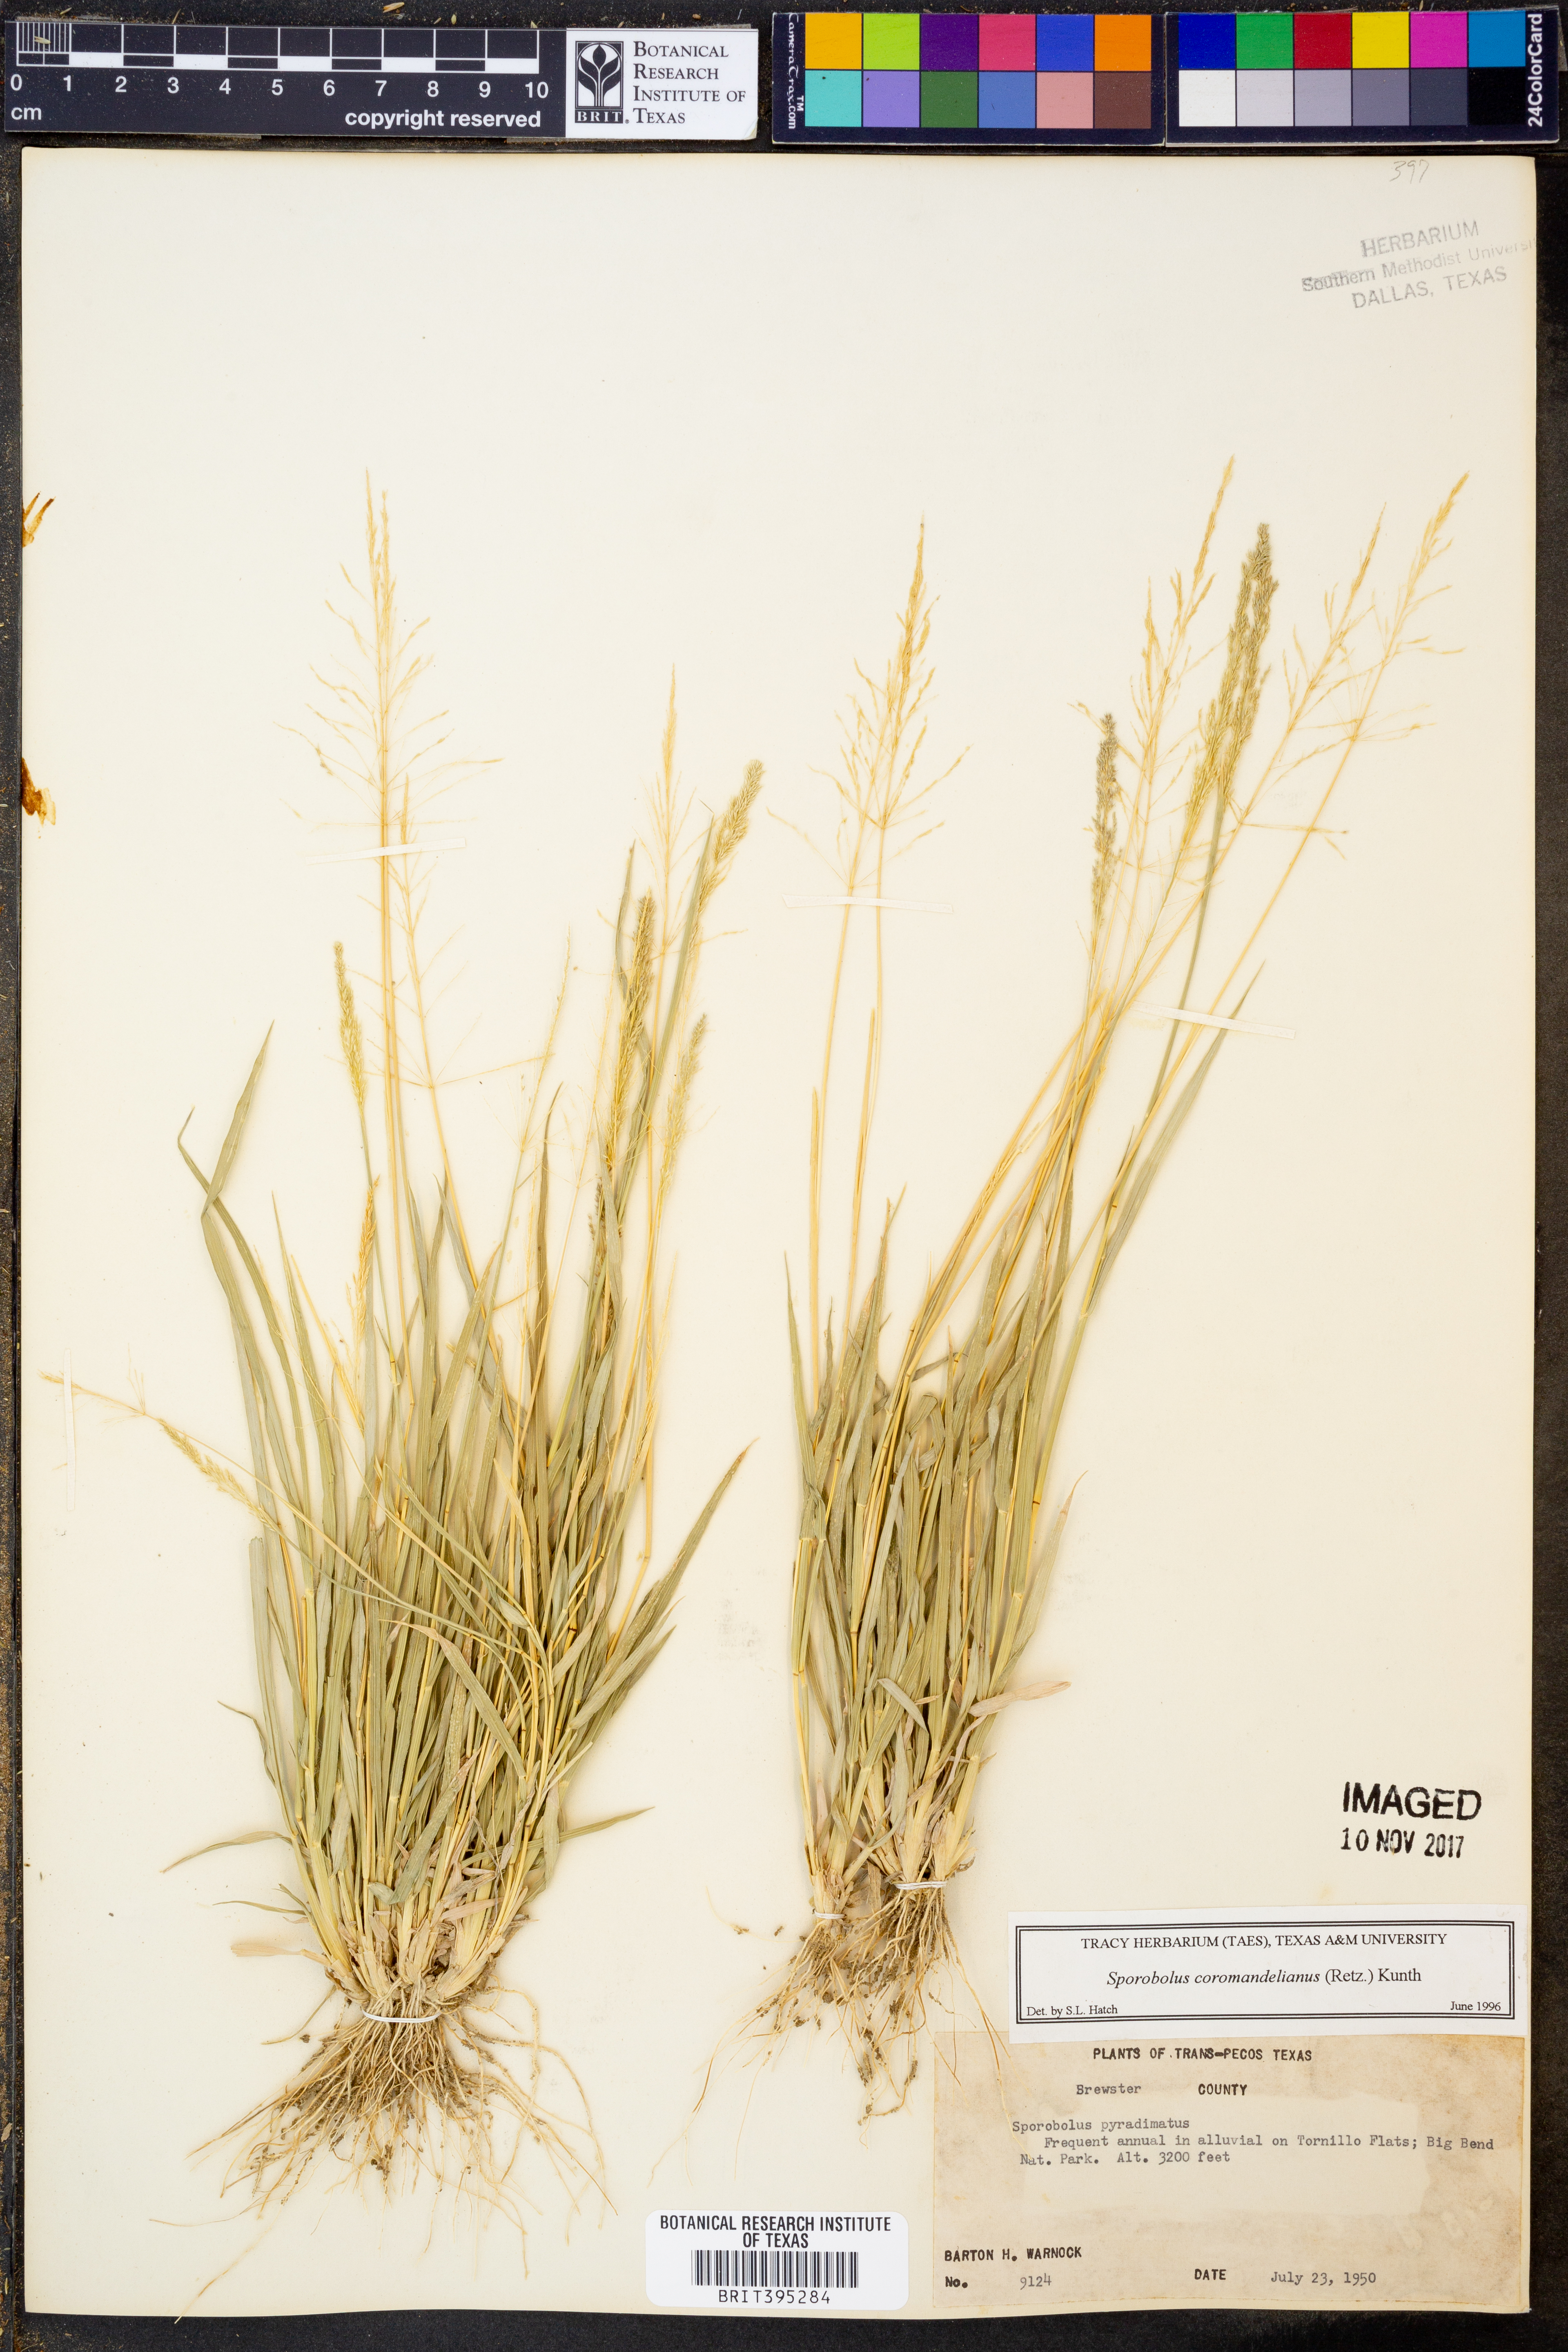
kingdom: Plantae
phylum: Tracheophyta
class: Liliopsida
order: Poales
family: Poaceae
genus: Sporobolus
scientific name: Sporobolus coromandelianus
